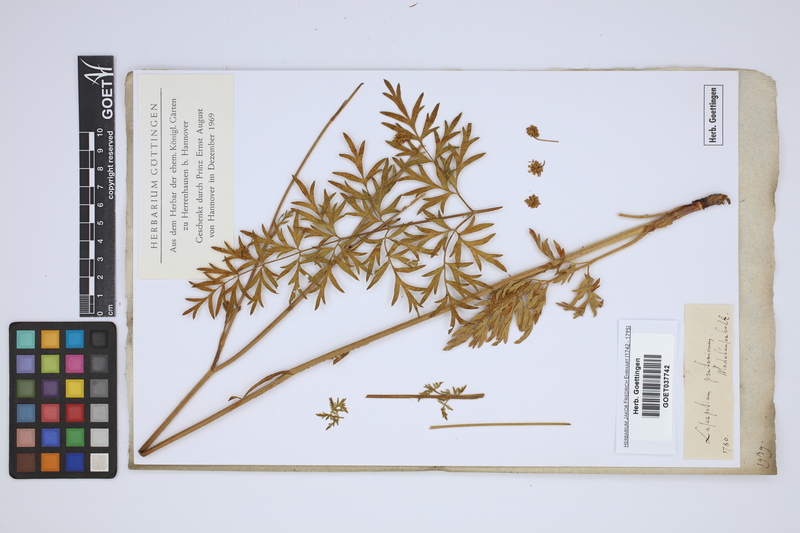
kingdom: Plantae
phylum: Tracheophyta
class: Magnoliopsida
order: Apiales
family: Apiaceae
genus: Silphiodaucus
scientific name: Silphiodaucus prutenicus
